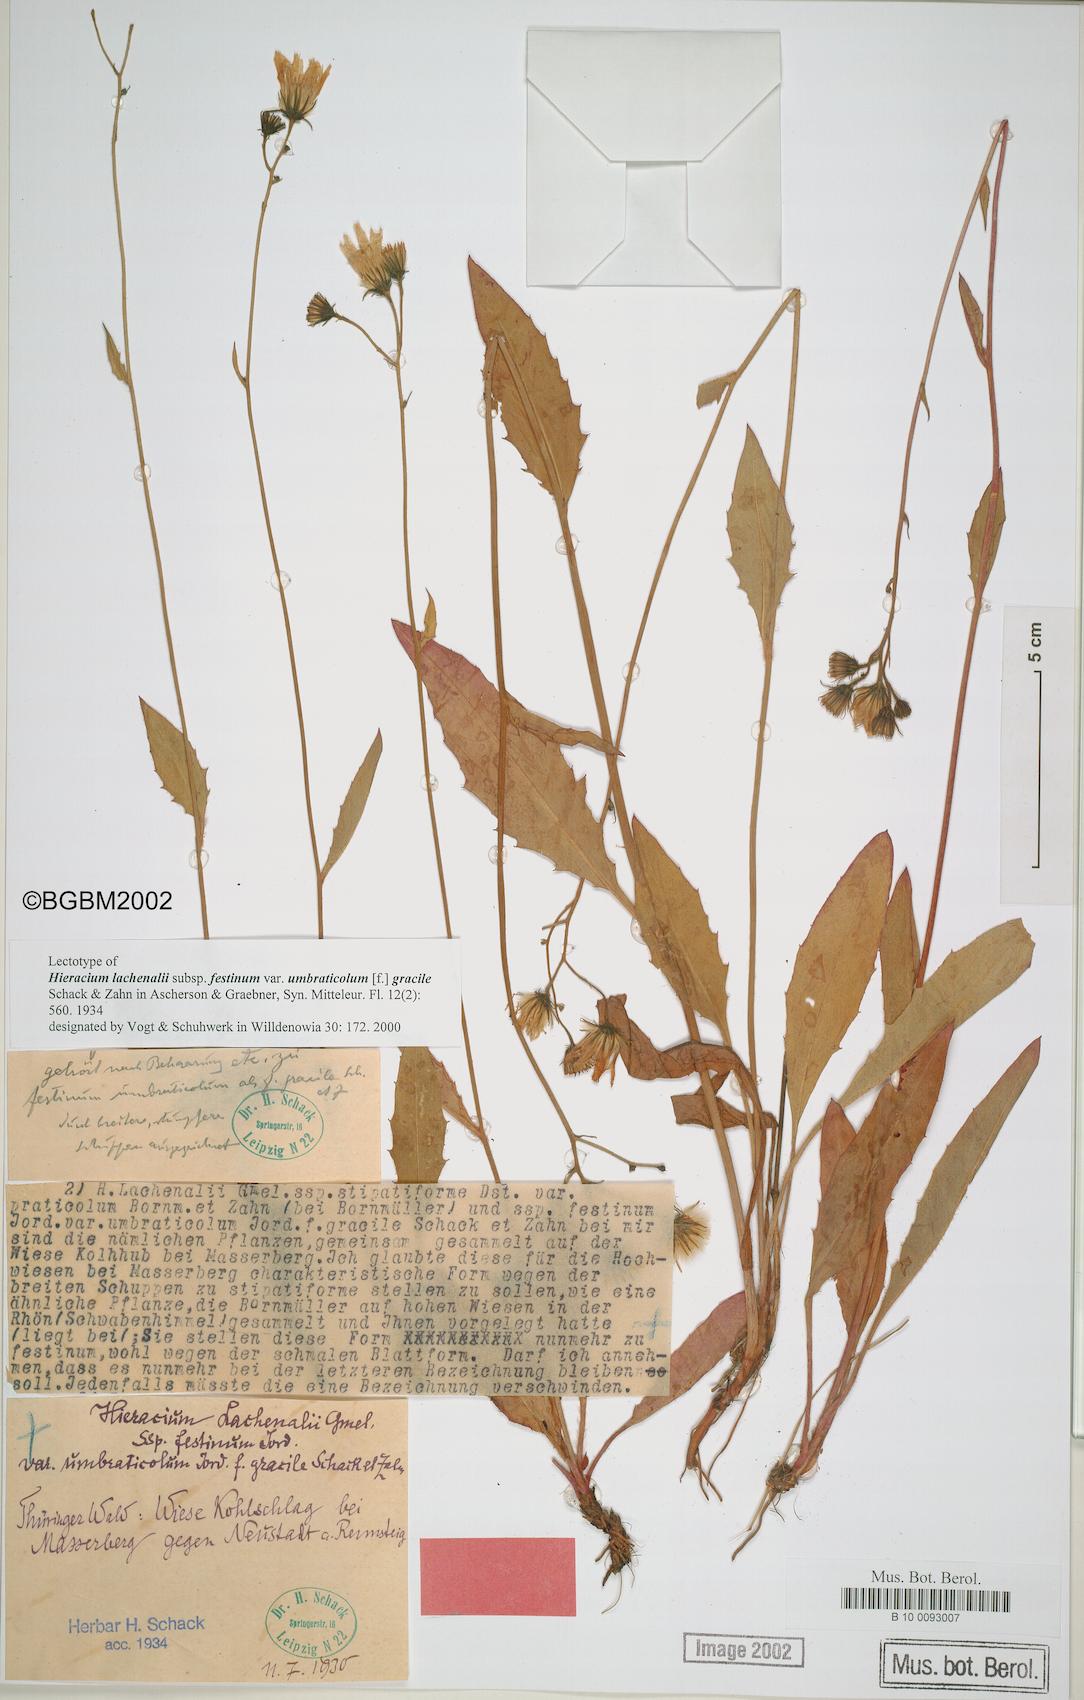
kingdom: Plantae
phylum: Tracheophyta
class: Magnoliopsida
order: Asterales
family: Asteraceae
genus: Hieracium
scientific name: Hieracium lachenalii
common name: Common hawkweed
